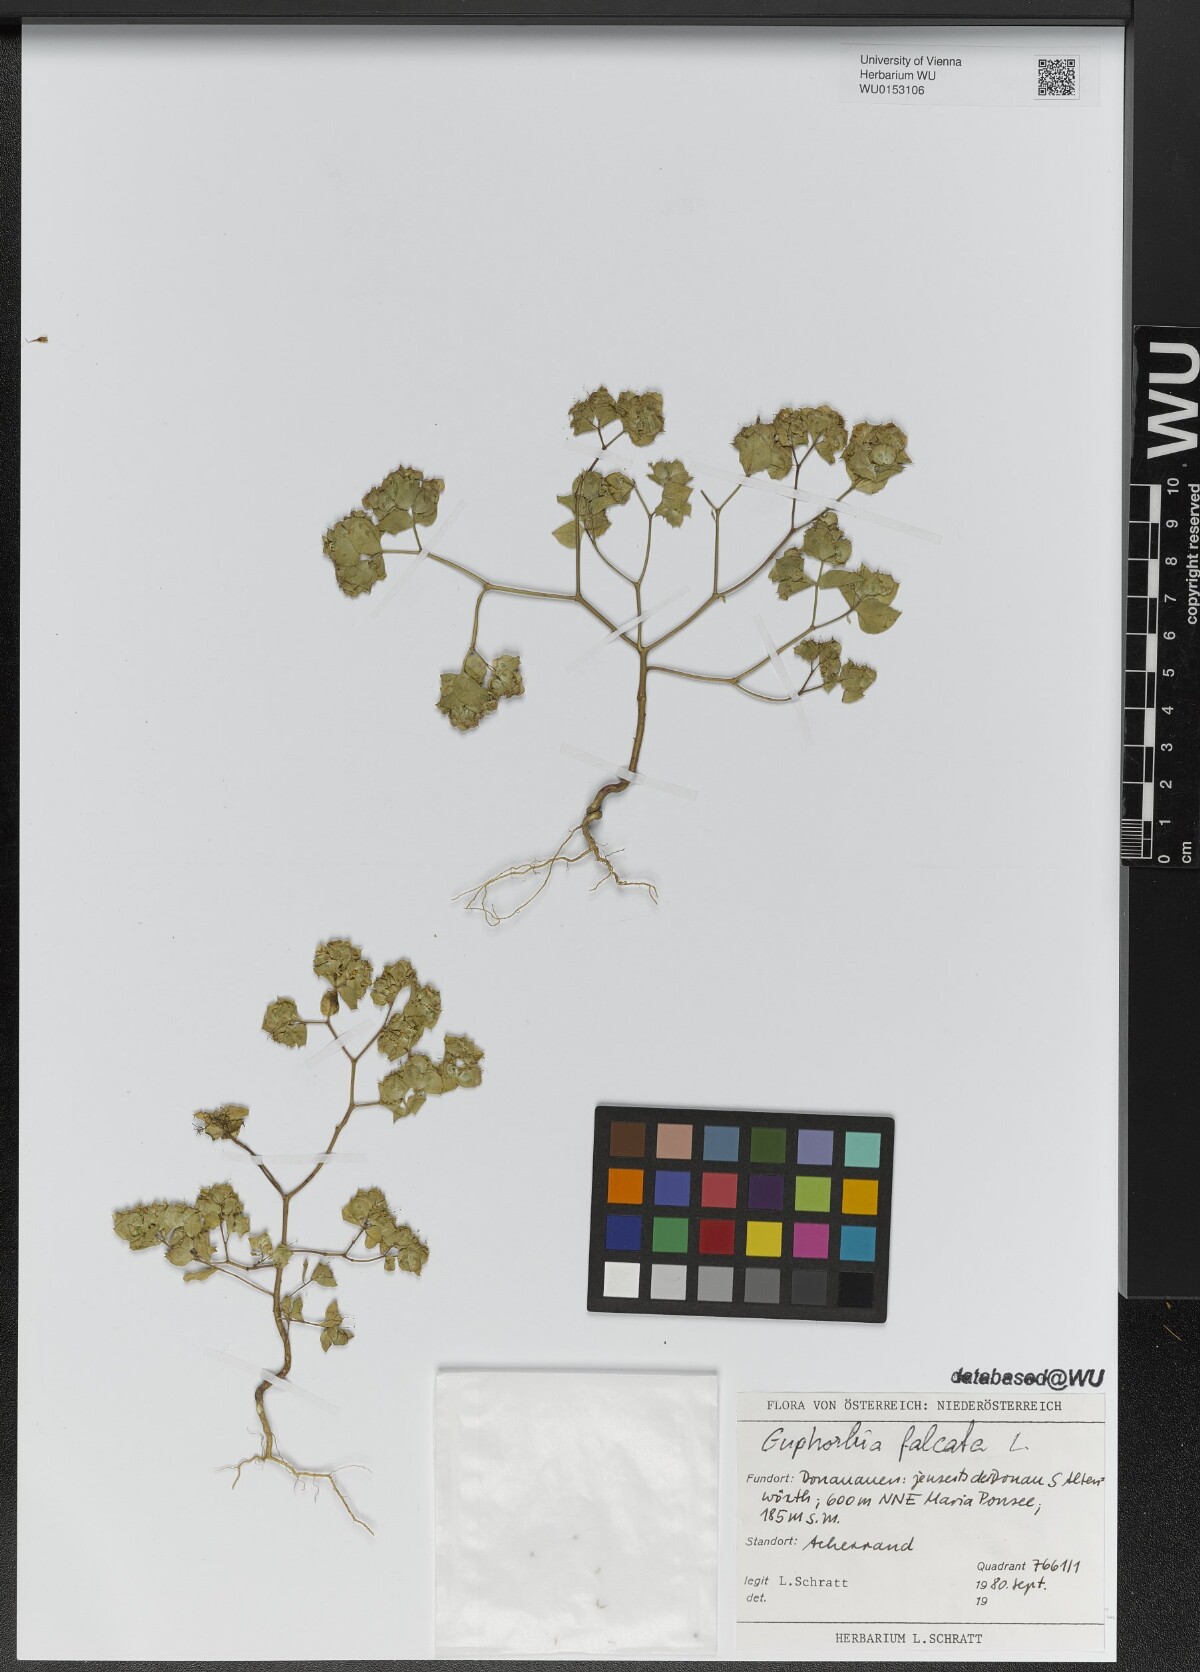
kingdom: Plantae
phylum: Tracheophyta
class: Magnoliopsida
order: Malpighiales
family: Euphorbiaceae
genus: Euphorbia
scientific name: Euphorbia falcata
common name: Sickle spurge
